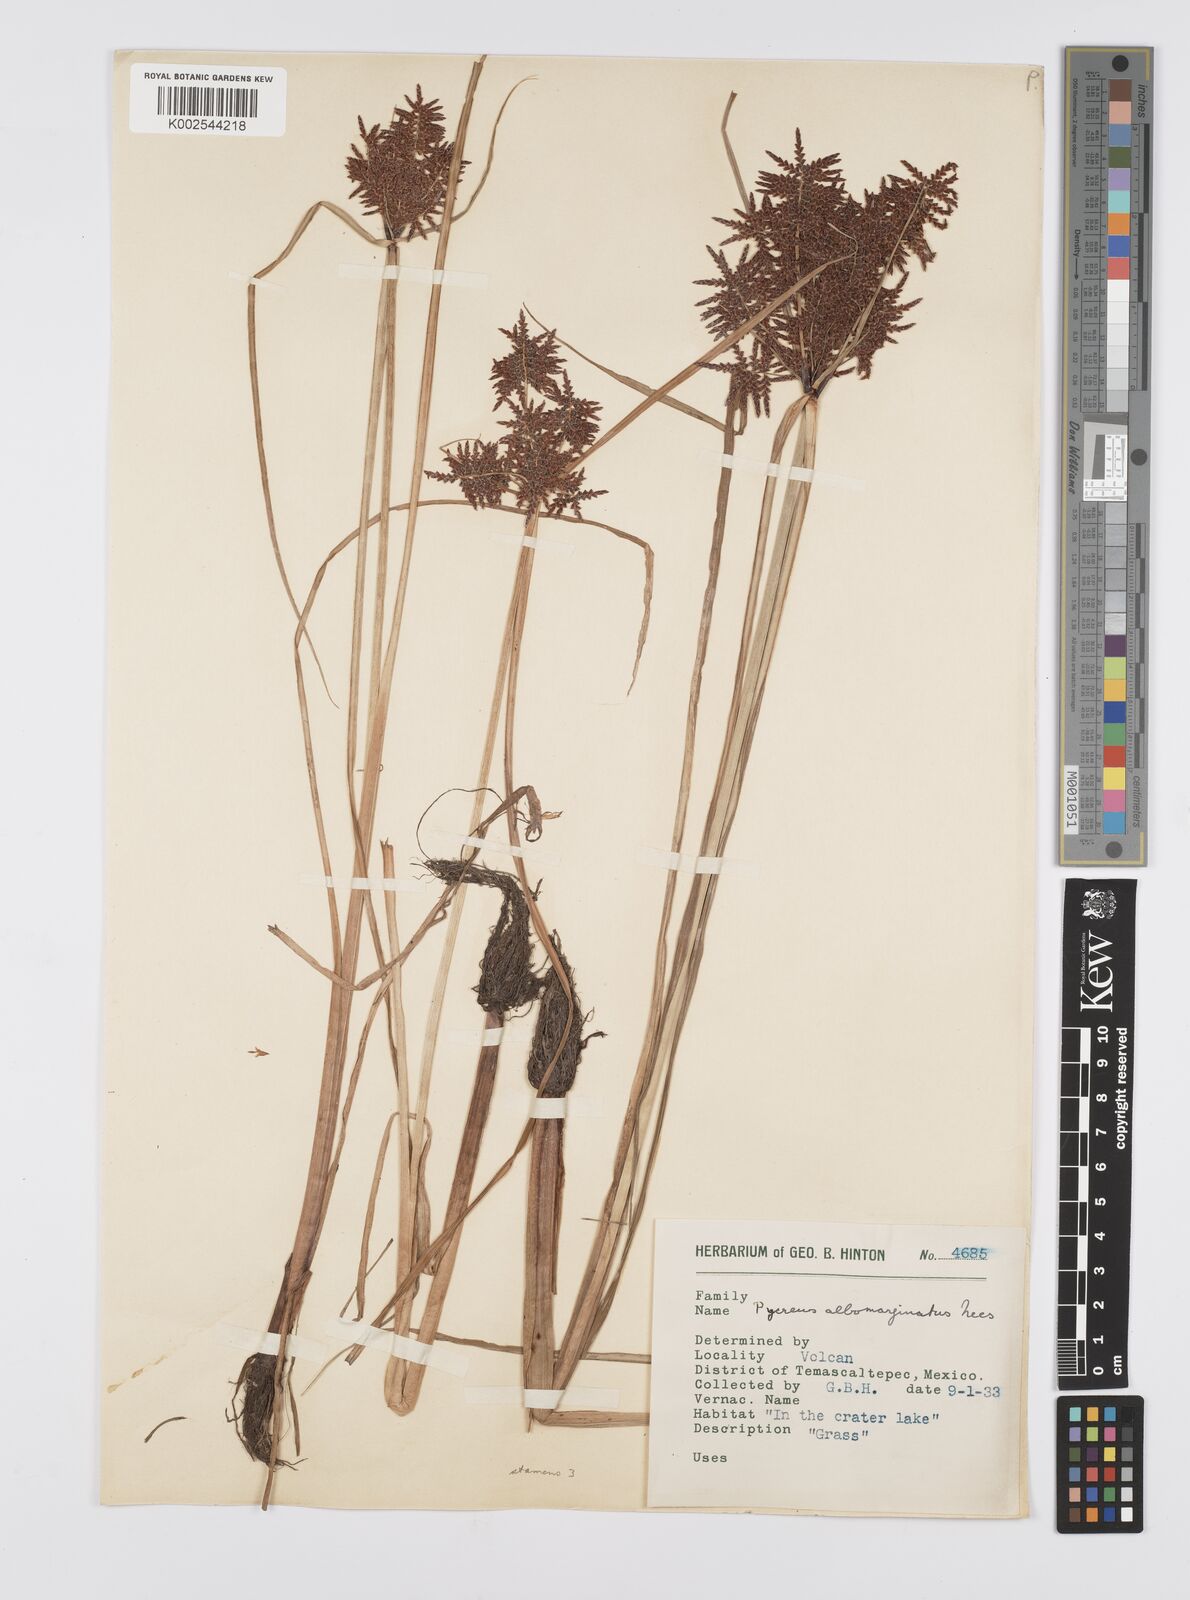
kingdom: Plantae
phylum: Tracheophyta
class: Liliopsida
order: Poales
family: Cyperaceae
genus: Cyperus
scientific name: Cyperus macrostachyos
